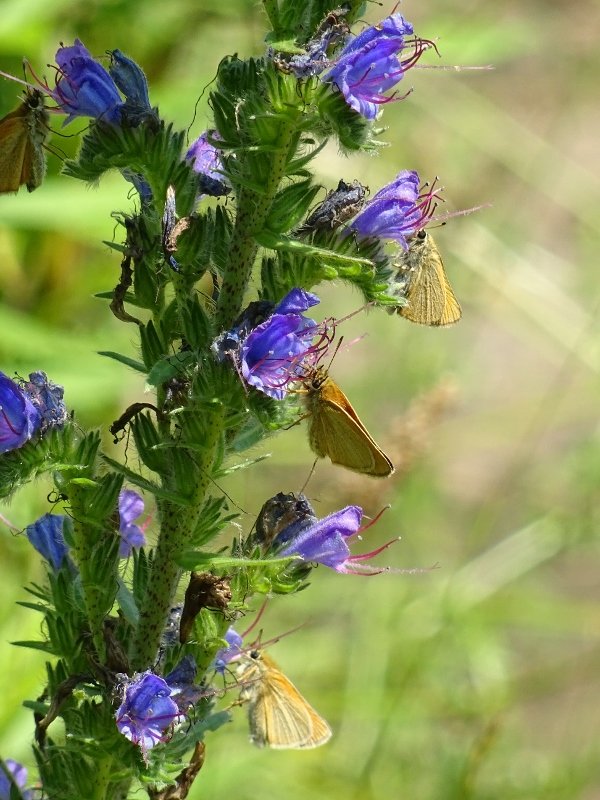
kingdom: Animalia
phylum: Arthropoda
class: Insecta
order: Lepidoptera
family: Hesperiidae
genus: Thymelicus
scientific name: Thymelicus lineola
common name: European Skipper
